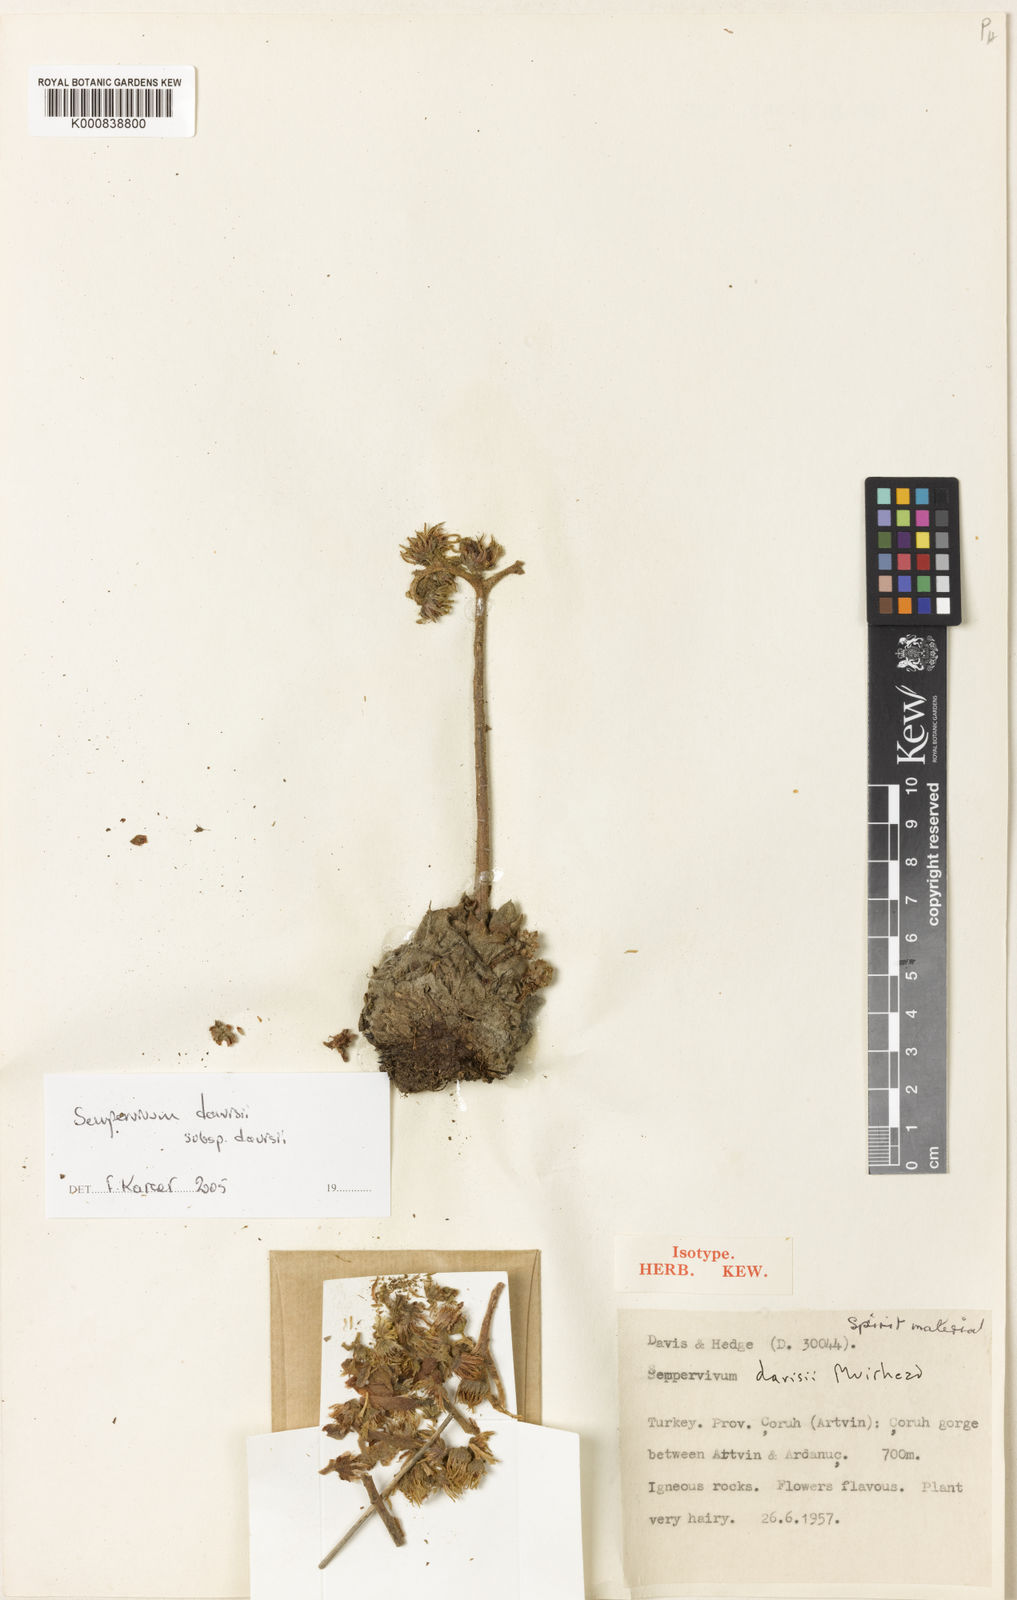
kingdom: Plantae
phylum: Tracheophyta
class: Magnoliopsida
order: Saxifragales
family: Crassulaceae
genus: Sempervivum
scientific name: Sempervivum davisii
